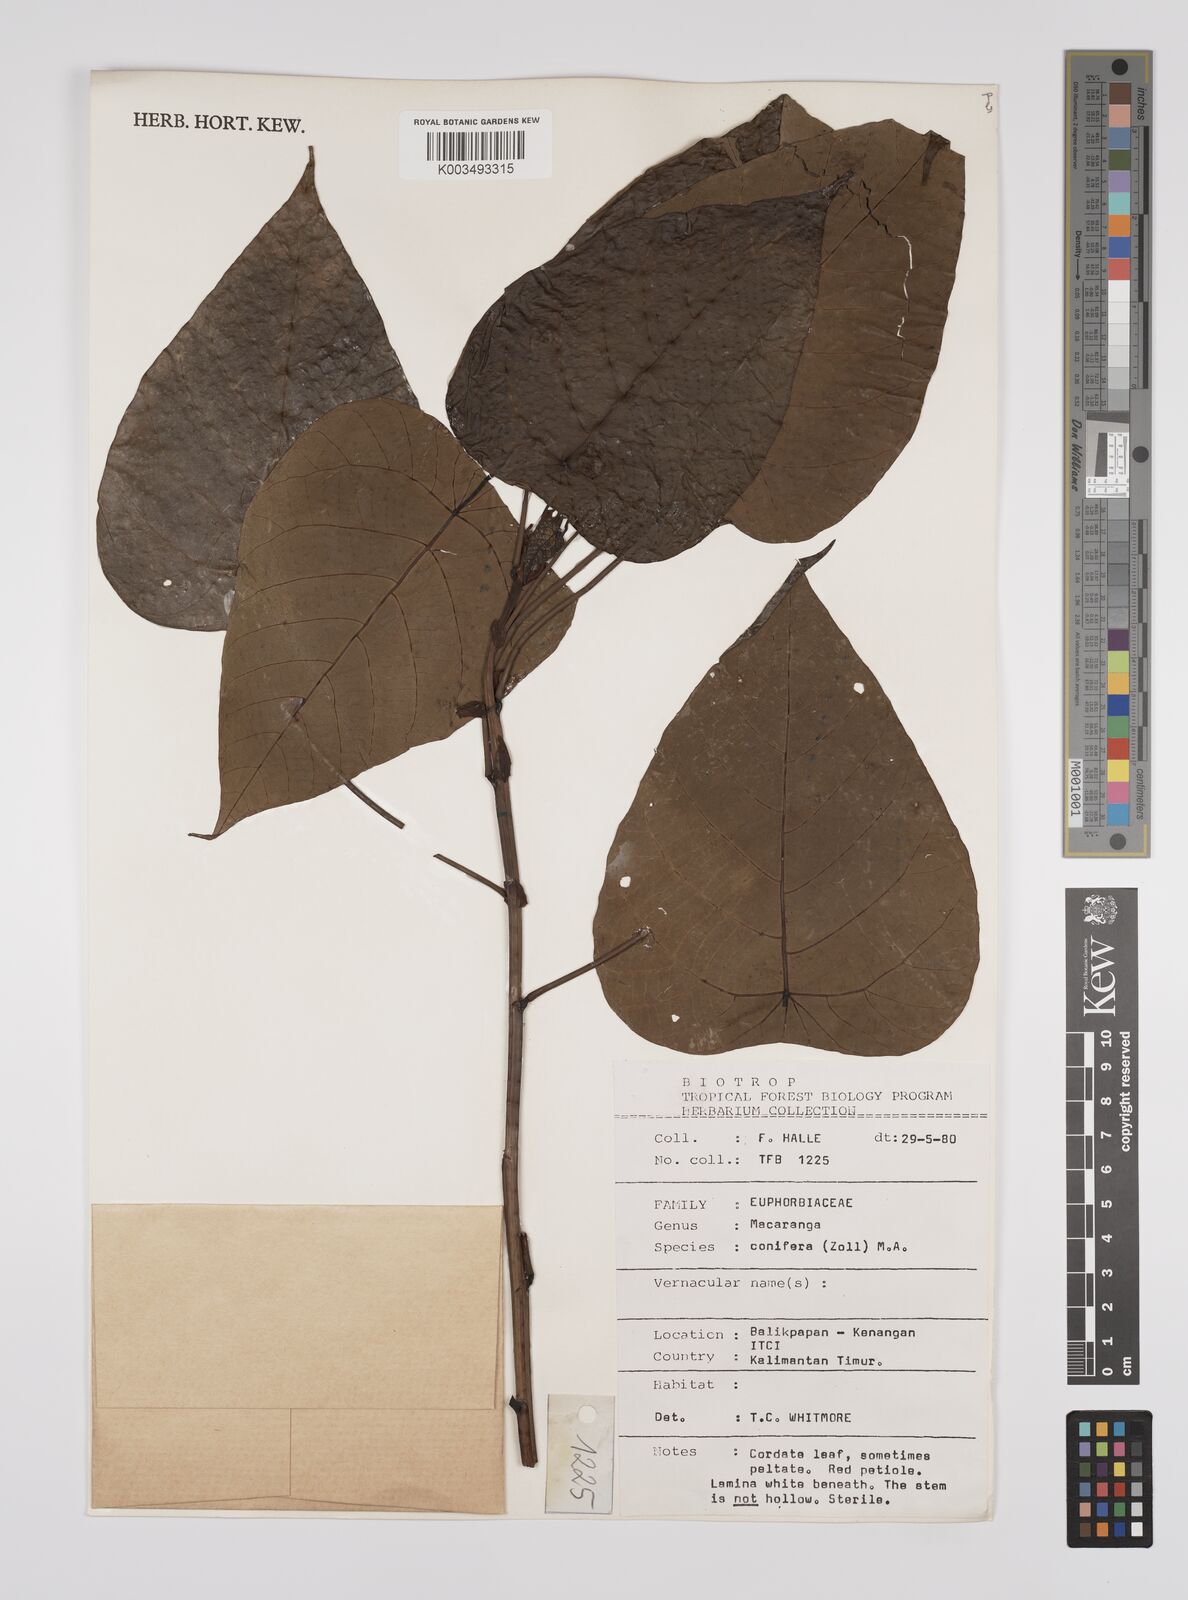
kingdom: Plantae
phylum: Tracheophyta
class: Magnoliopsida
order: Malpighiales
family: Euphorbiaceae
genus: Macaranga
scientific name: Macaranga conifera
